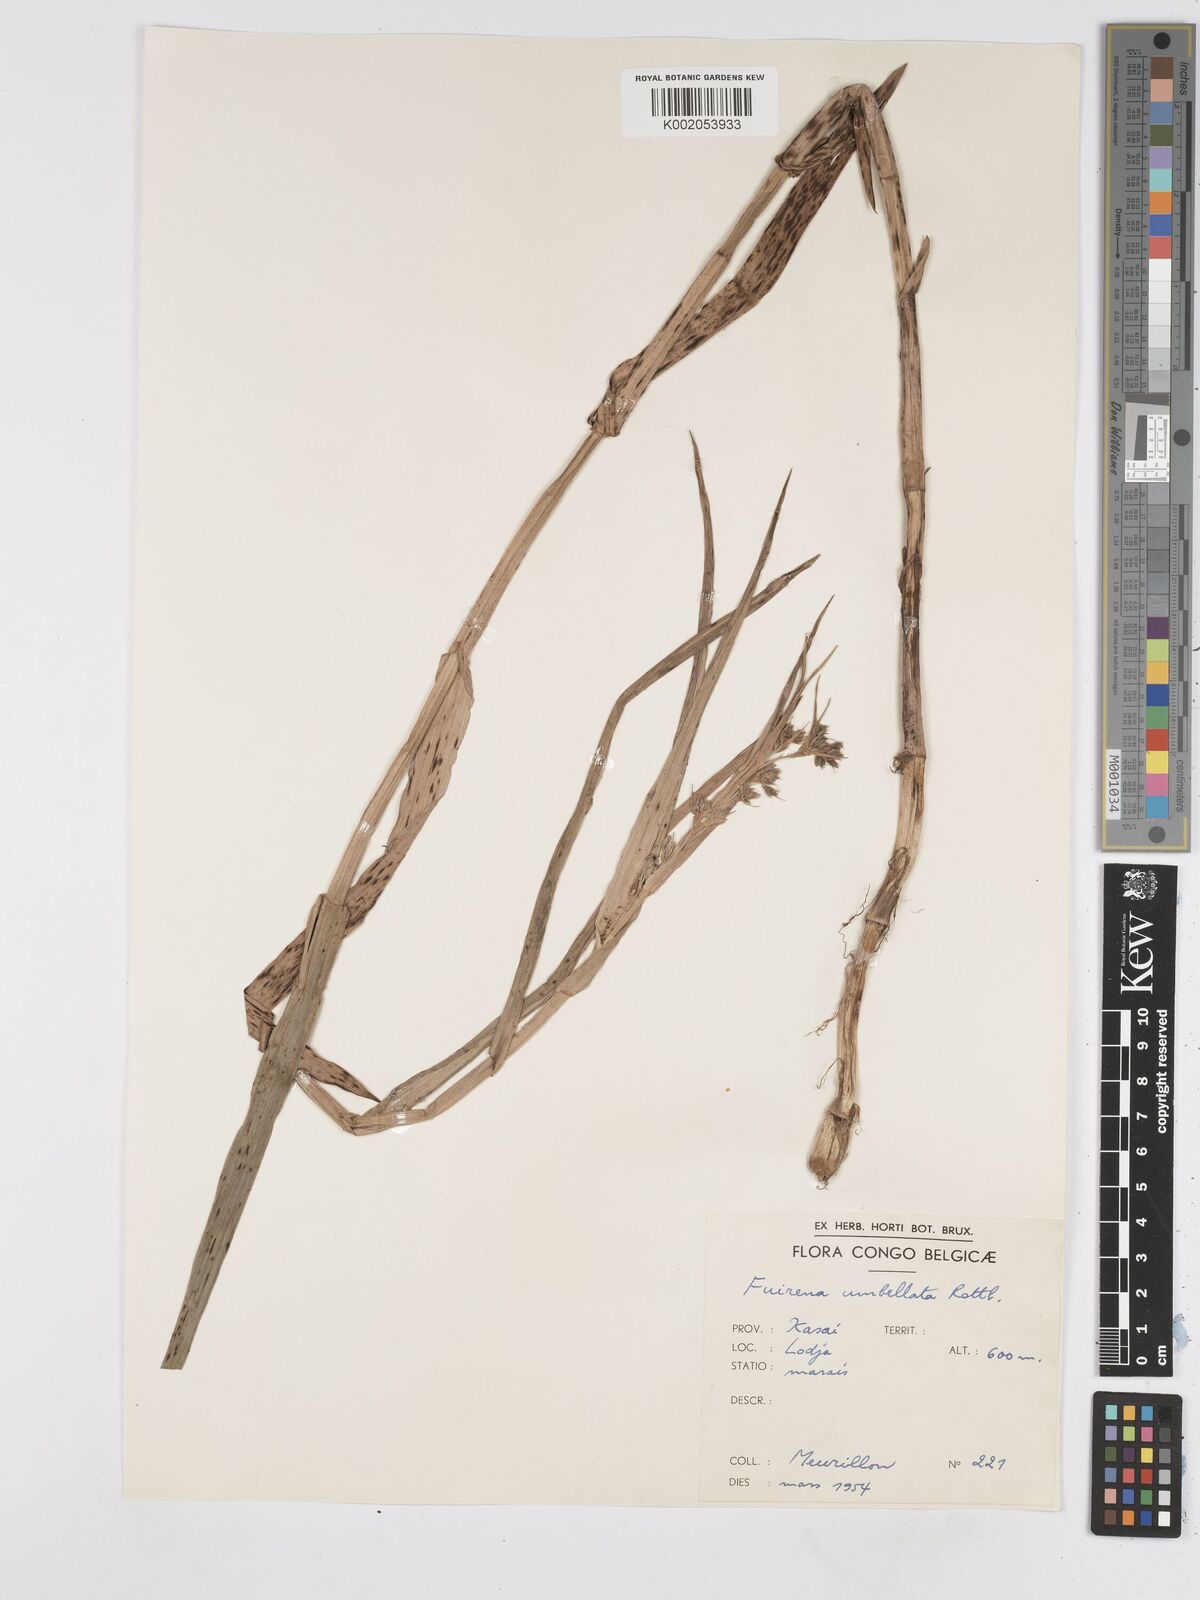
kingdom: Plantae
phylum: Tracheophyta
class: Liliopsida
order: Poales
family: Cyperaceae
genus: Fuirena
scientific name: Fuirena umbellata
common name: Yefen
